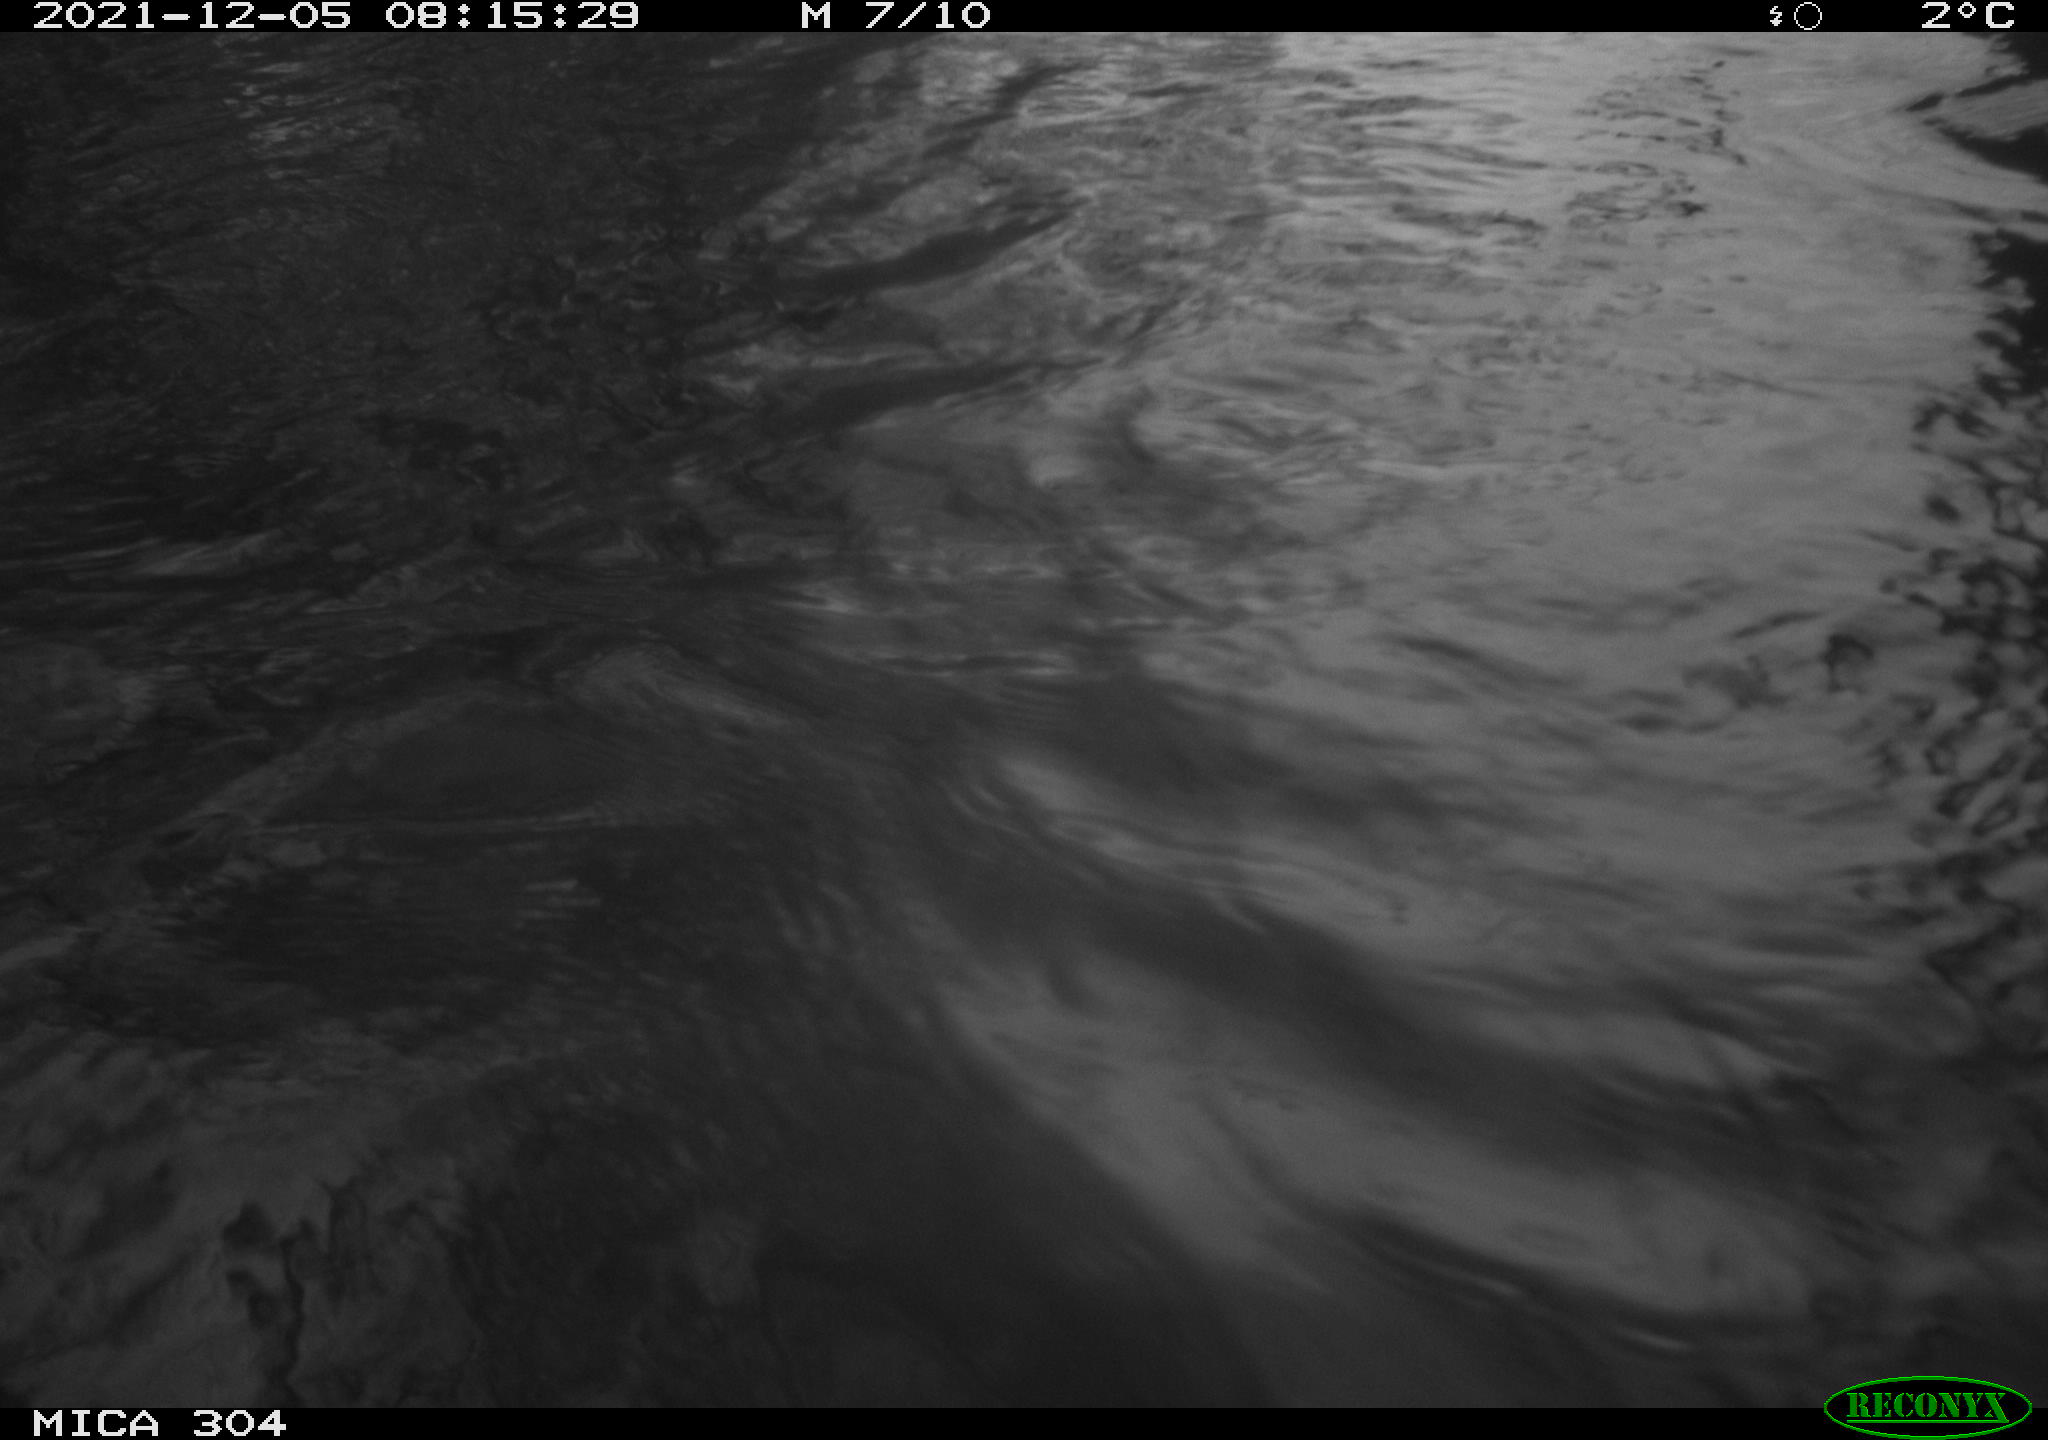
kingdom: Animalia
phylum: Chordata
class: Aves
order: Gruiformes
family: Rallidae
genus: Fulica
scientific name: Fulica atra
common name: Eurasian coot
